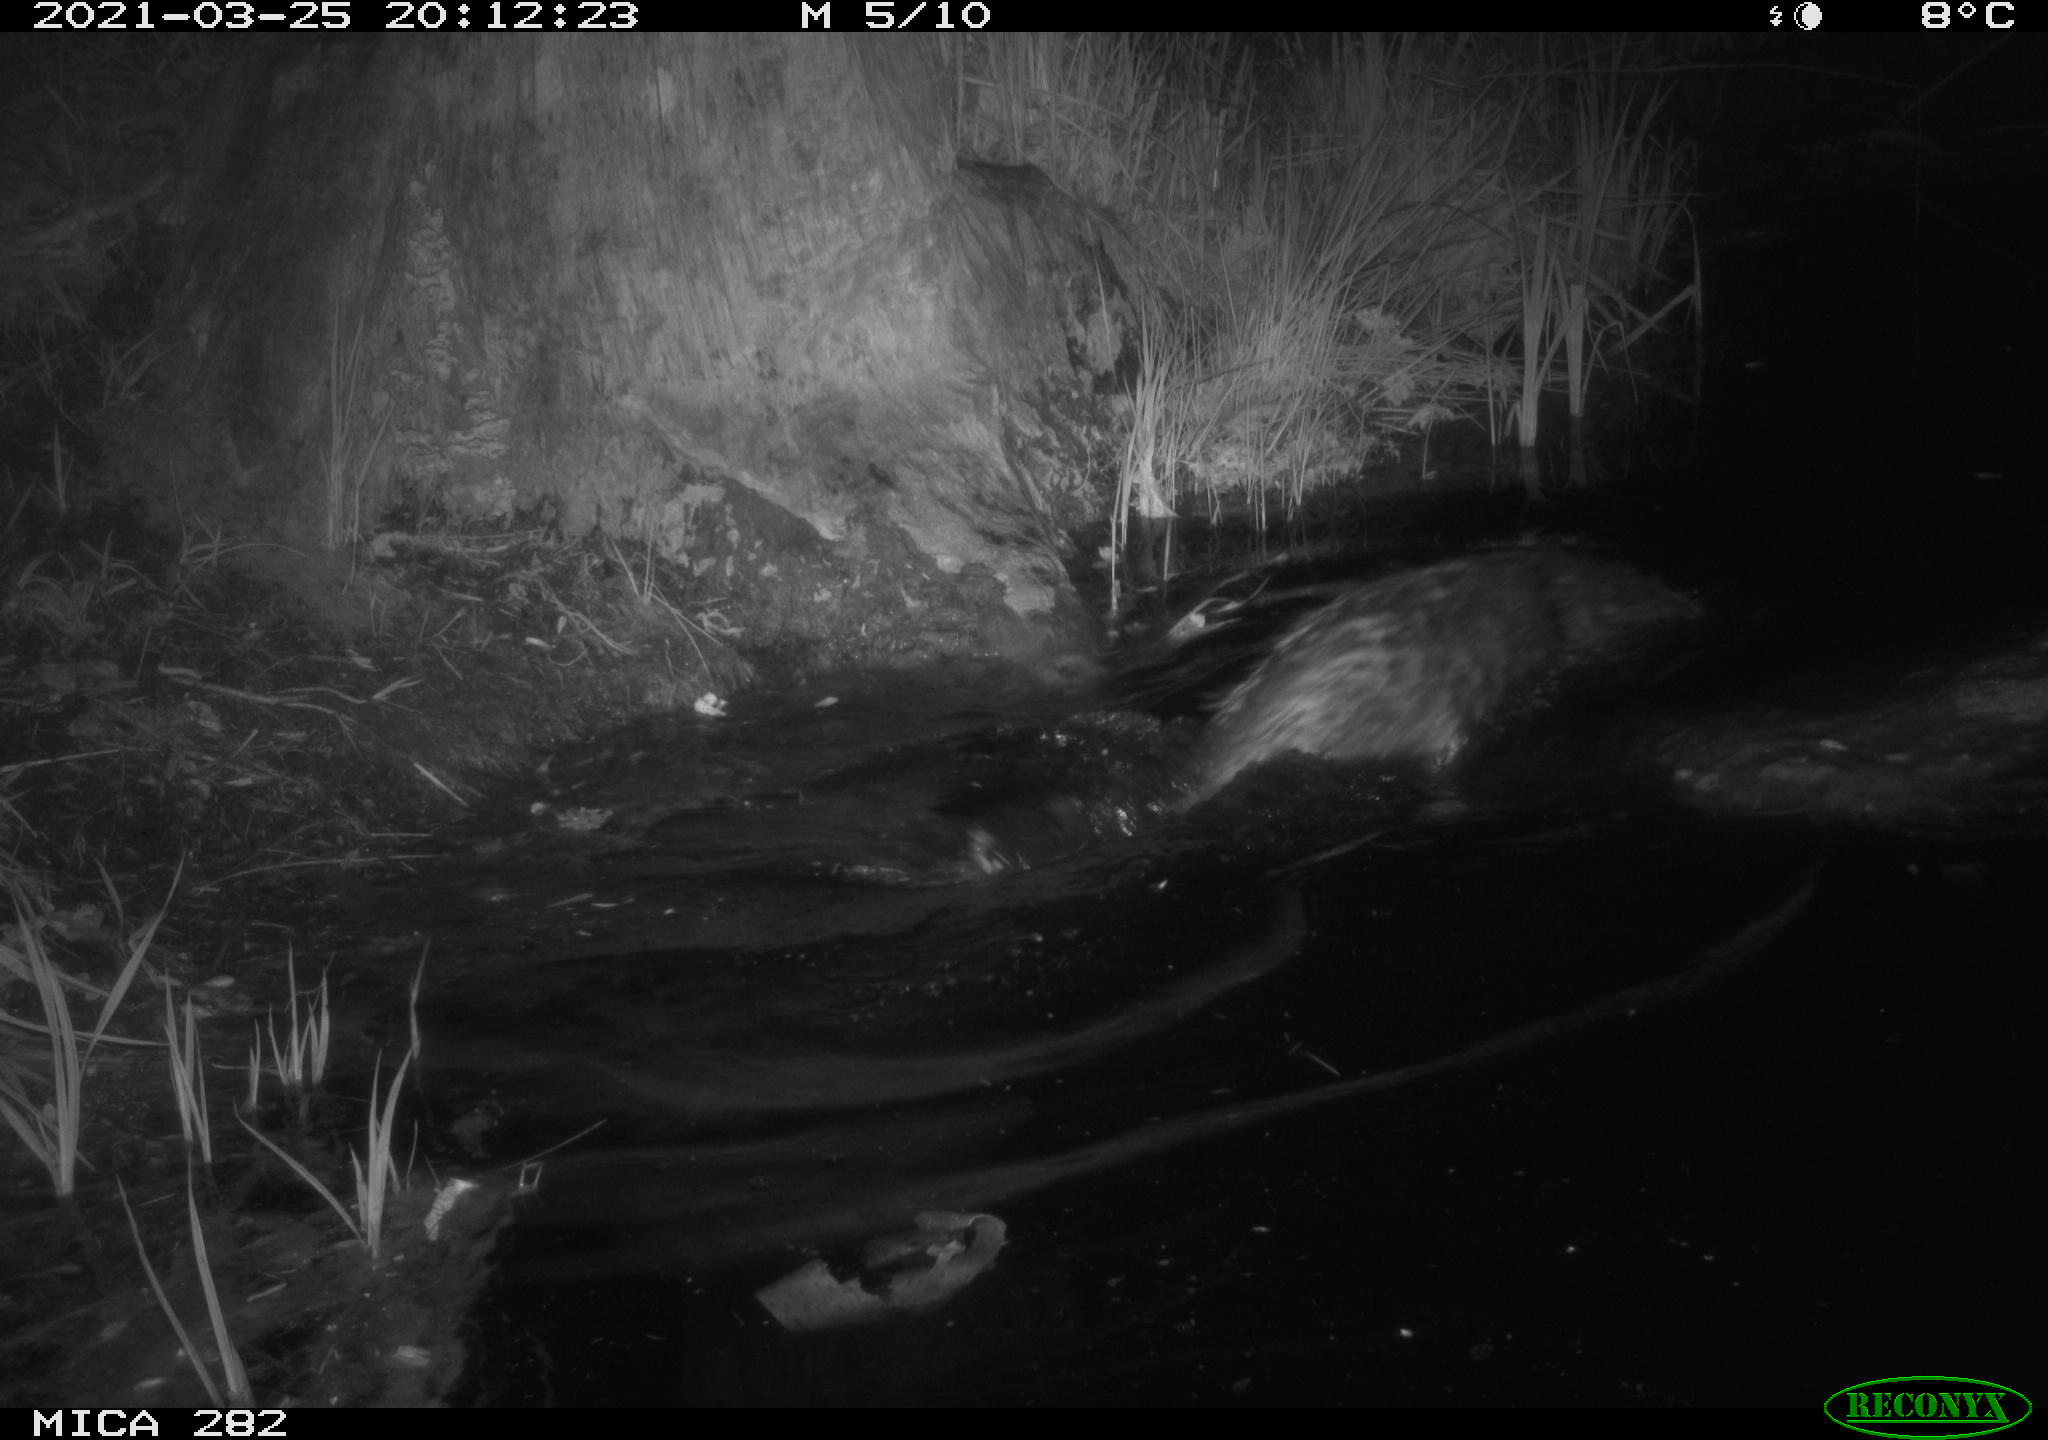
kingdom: Animalia
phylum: Chordata
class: Mammalia
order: Rodentia
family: Castoridae
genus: Castor
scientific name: Castor fiber
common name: Eurasian beaver
